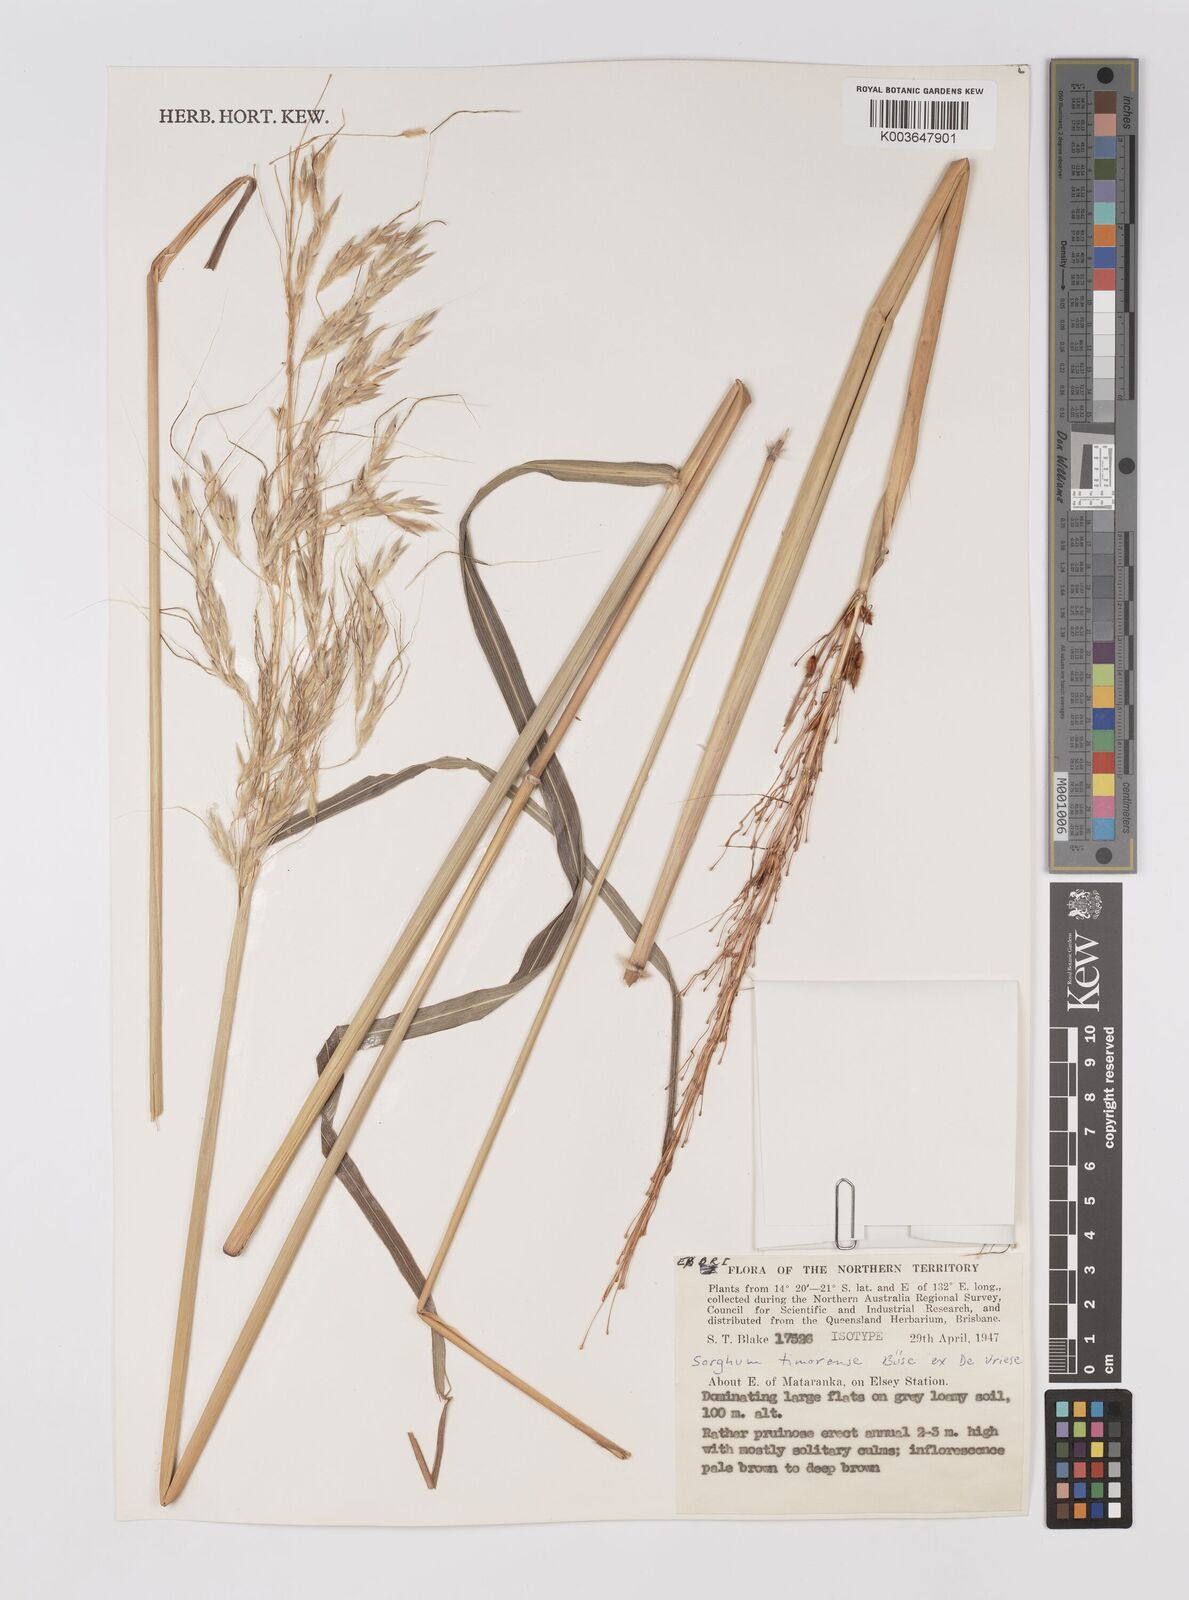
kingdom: Plantae
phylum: Tracheophyta
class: Liliopsida
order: Poales
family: Poaceae
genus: Sarga
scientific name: Sarga timorensis
